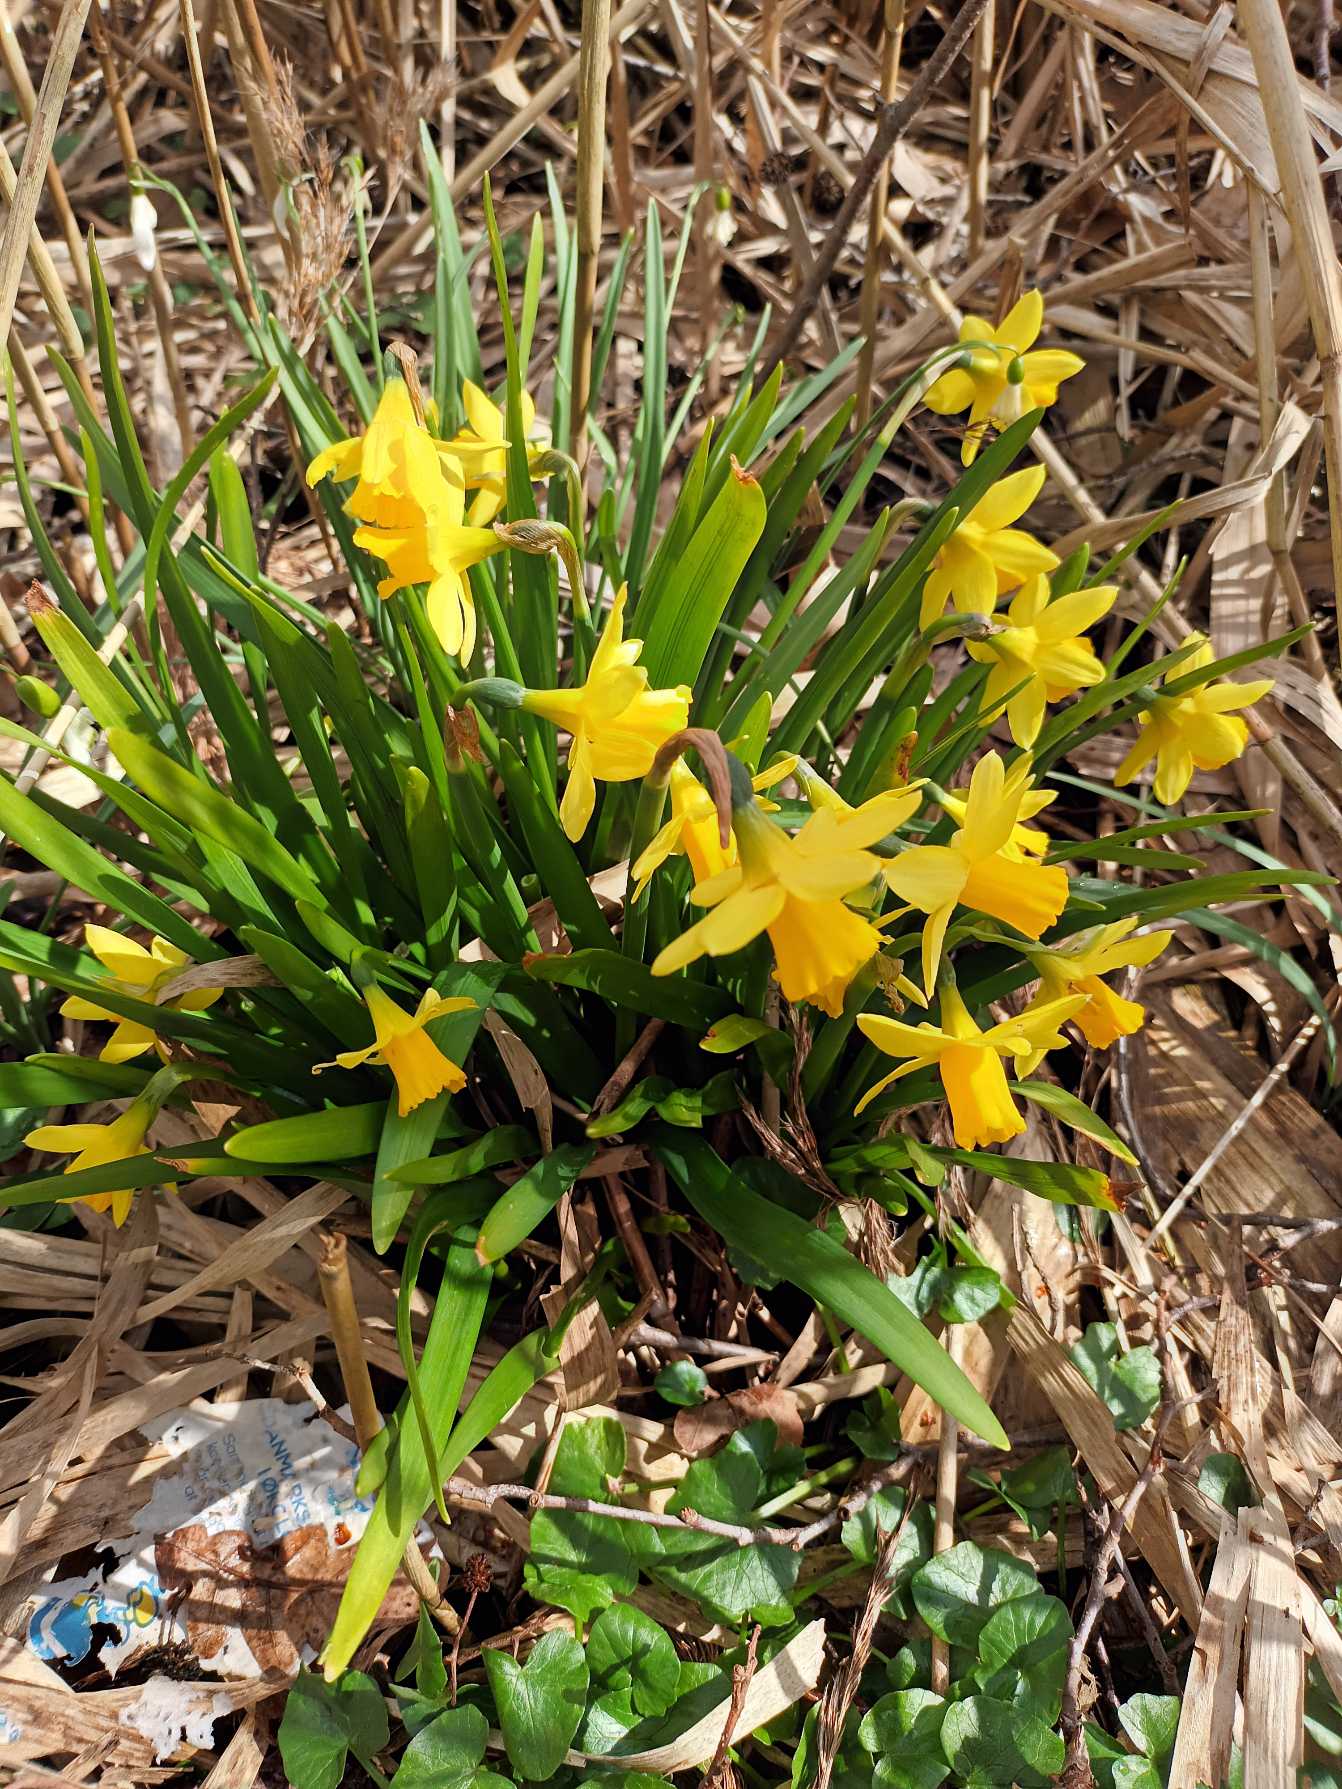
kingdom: Plantae
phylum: Tracheophyta
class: Liliopsida
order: Asparagales
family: Amaryllidaceae
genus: Narcissus
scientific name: Narcissus cyclazetta
